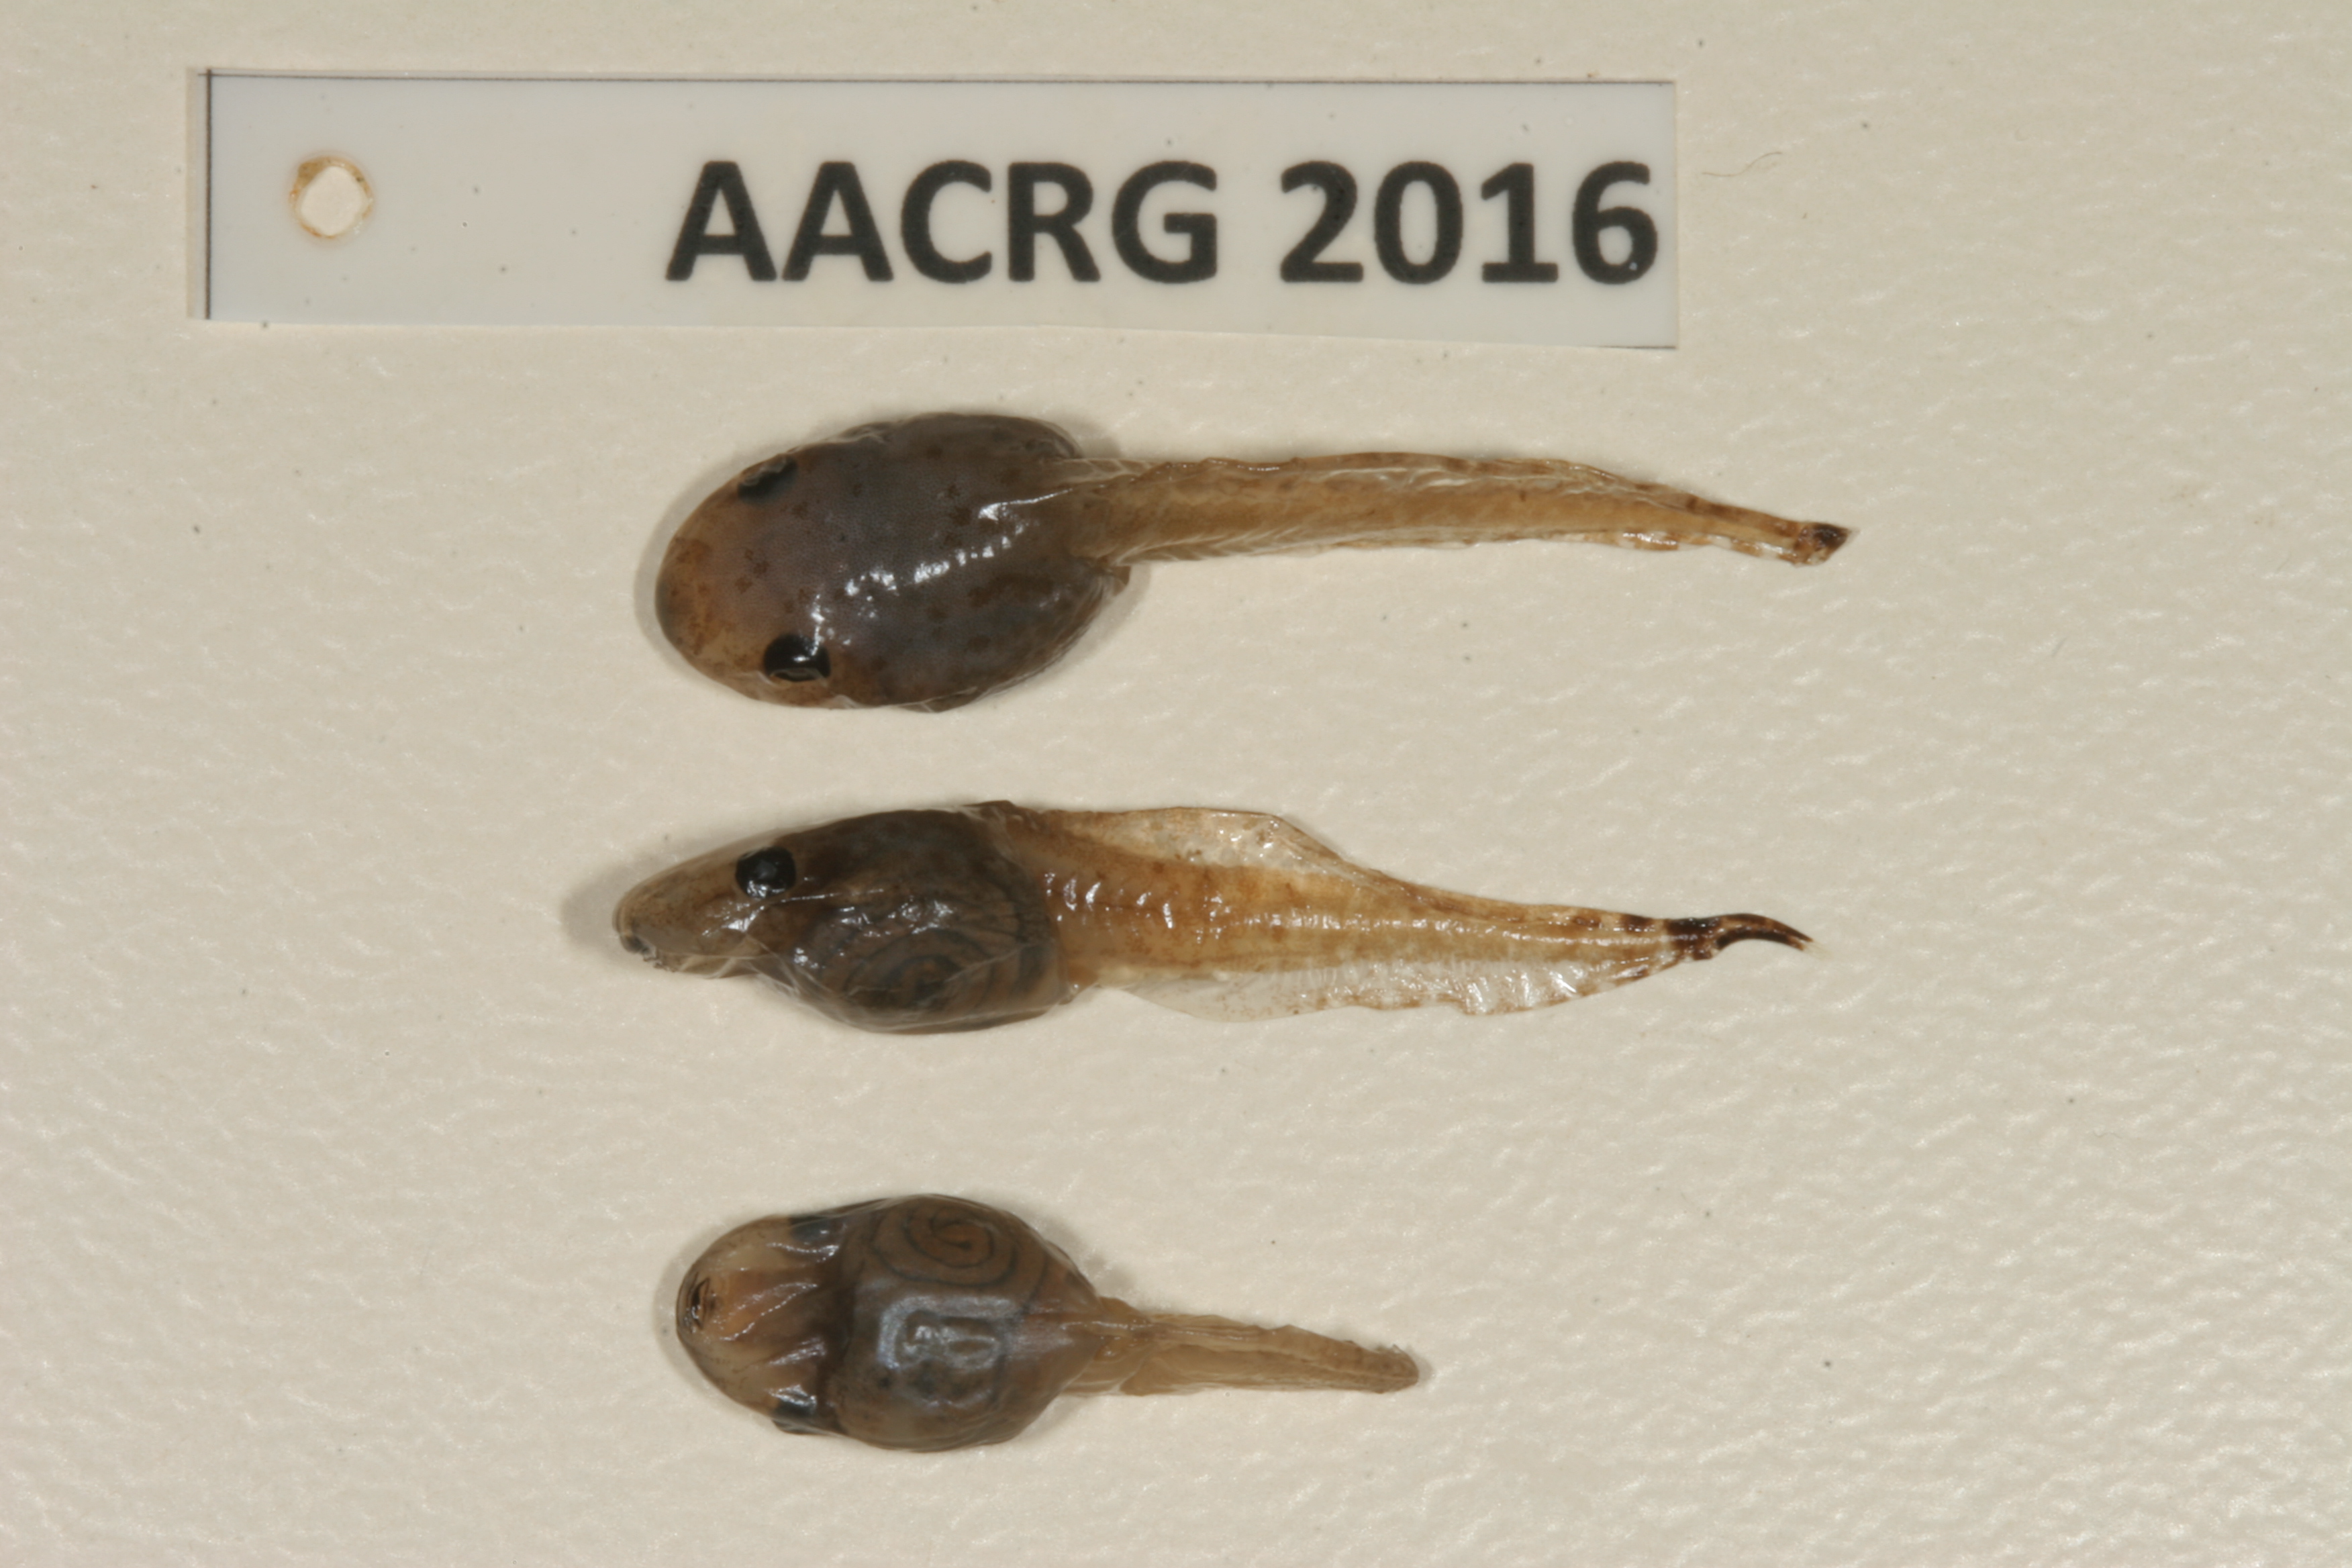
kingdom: Animalia
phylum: Chordata
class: Amphibia
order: Anura
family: Hyperoliidae
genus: Hyperolius
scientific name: Hyperolius marmoratus
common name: Painted reed frog
